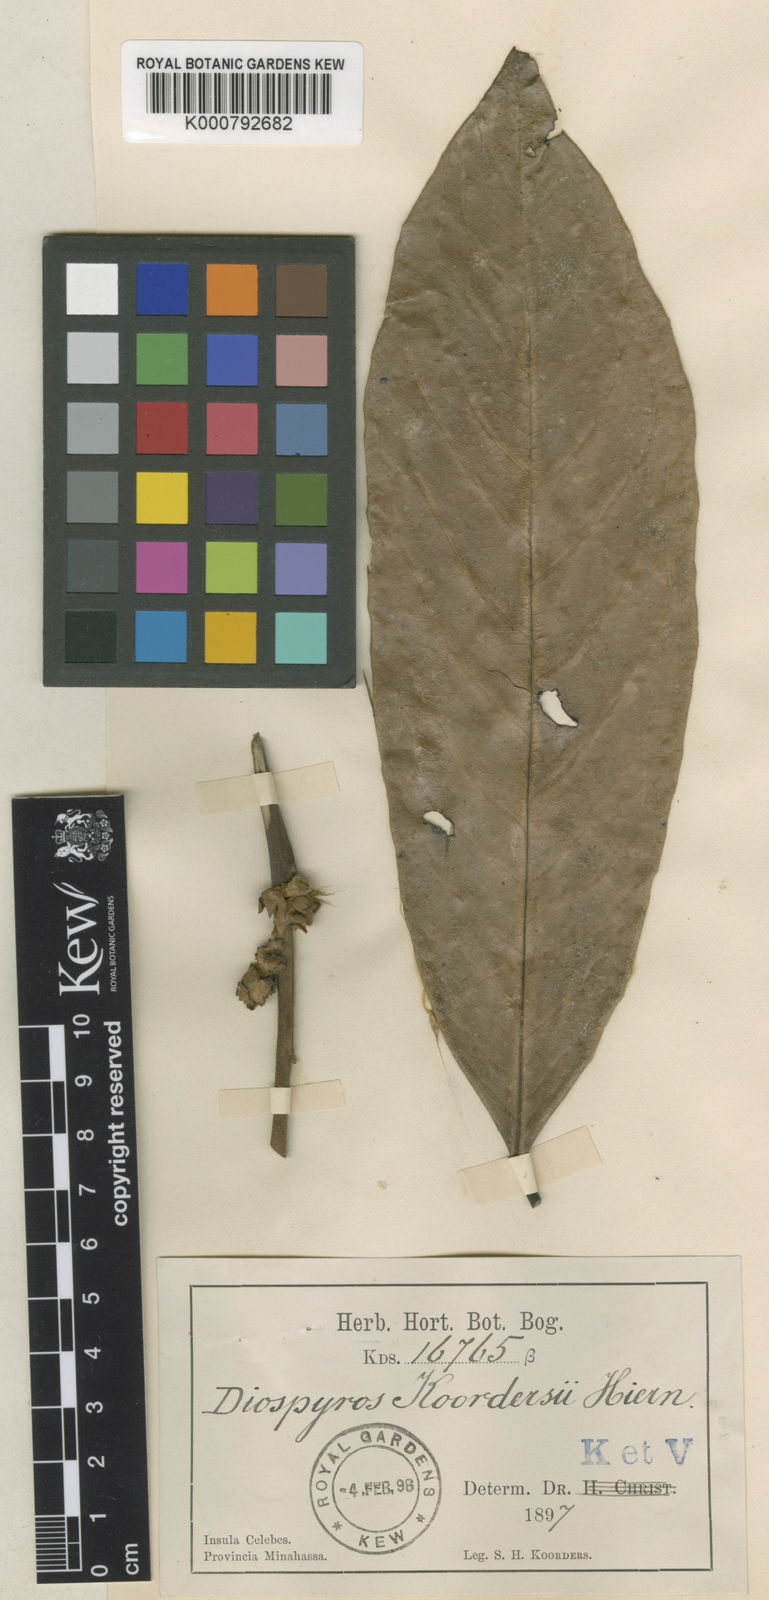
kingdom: Plantae
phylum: Tracheophyta
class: Magnoliopsida
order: Ericales
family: Ebenaceae
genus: Diospyros
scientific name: Diospyros sumatrana
